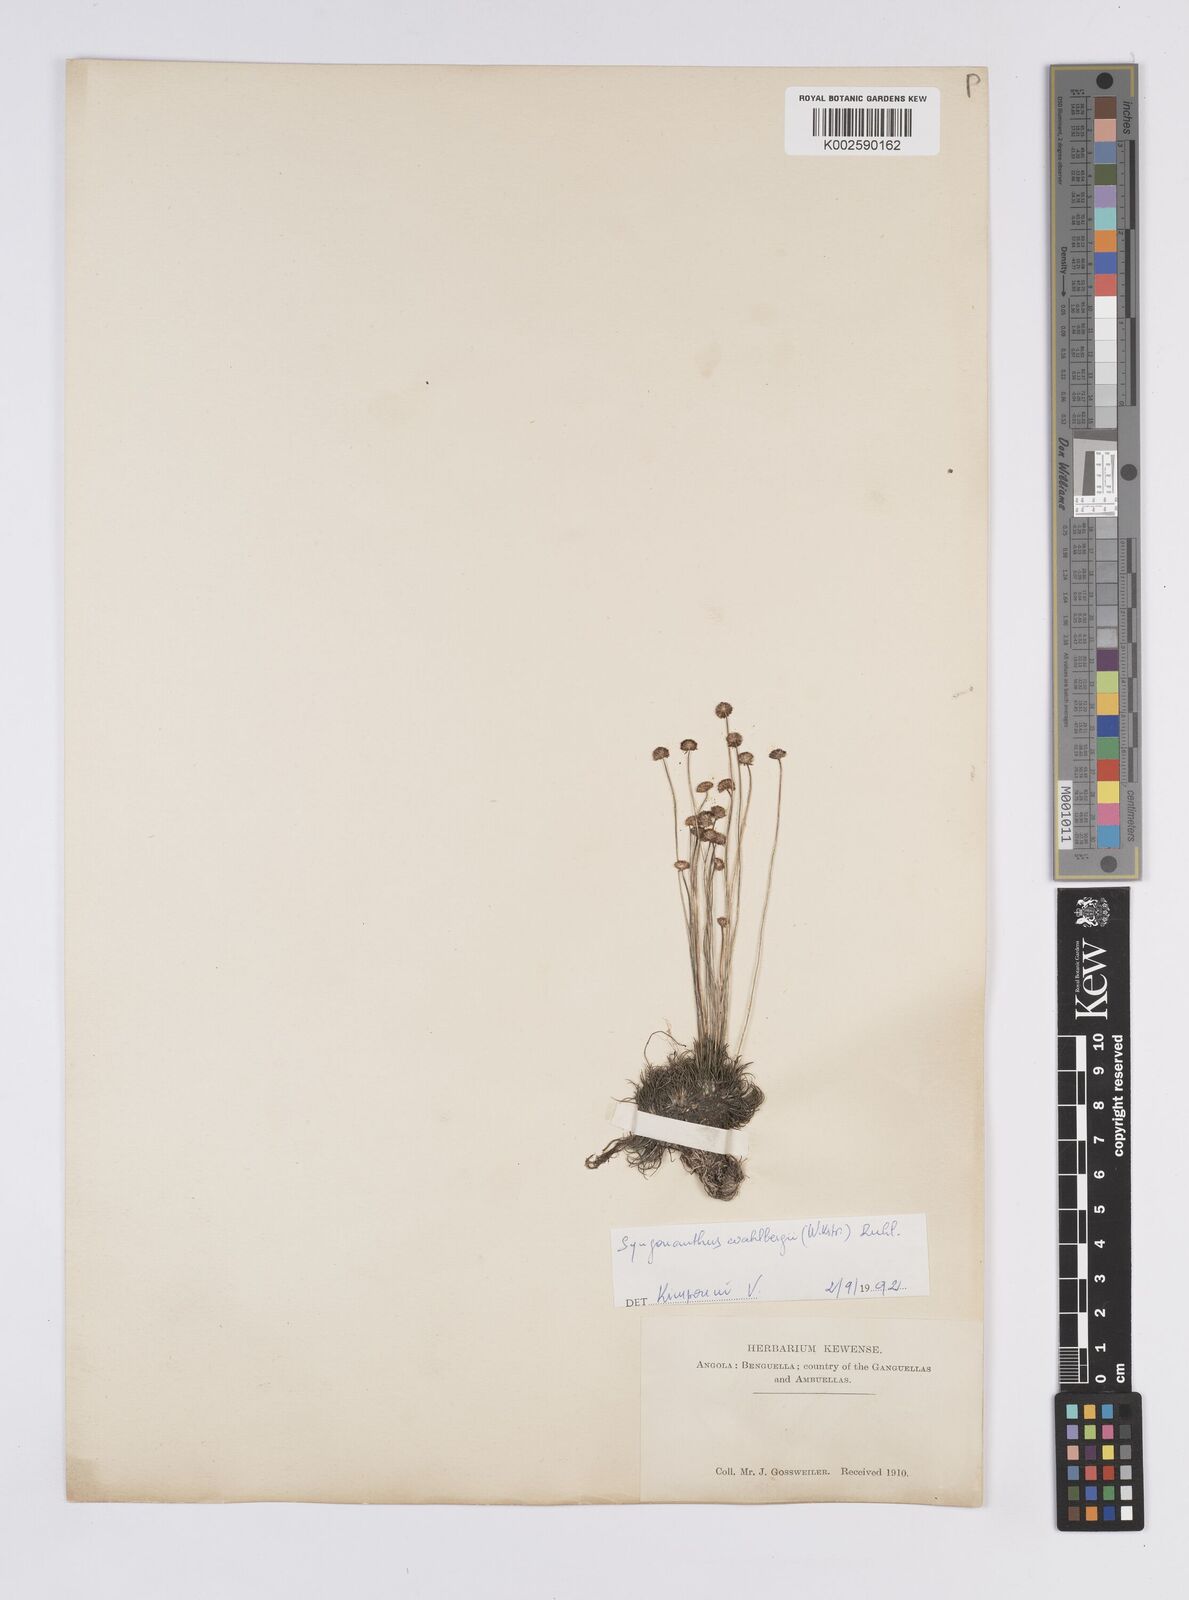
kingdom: Plantae
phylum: Tracheophyta
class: Liliopsida
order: Poales
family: Eriocaulaceae
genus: Syngonanthus
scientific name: Syngonanthus wahlbergii
